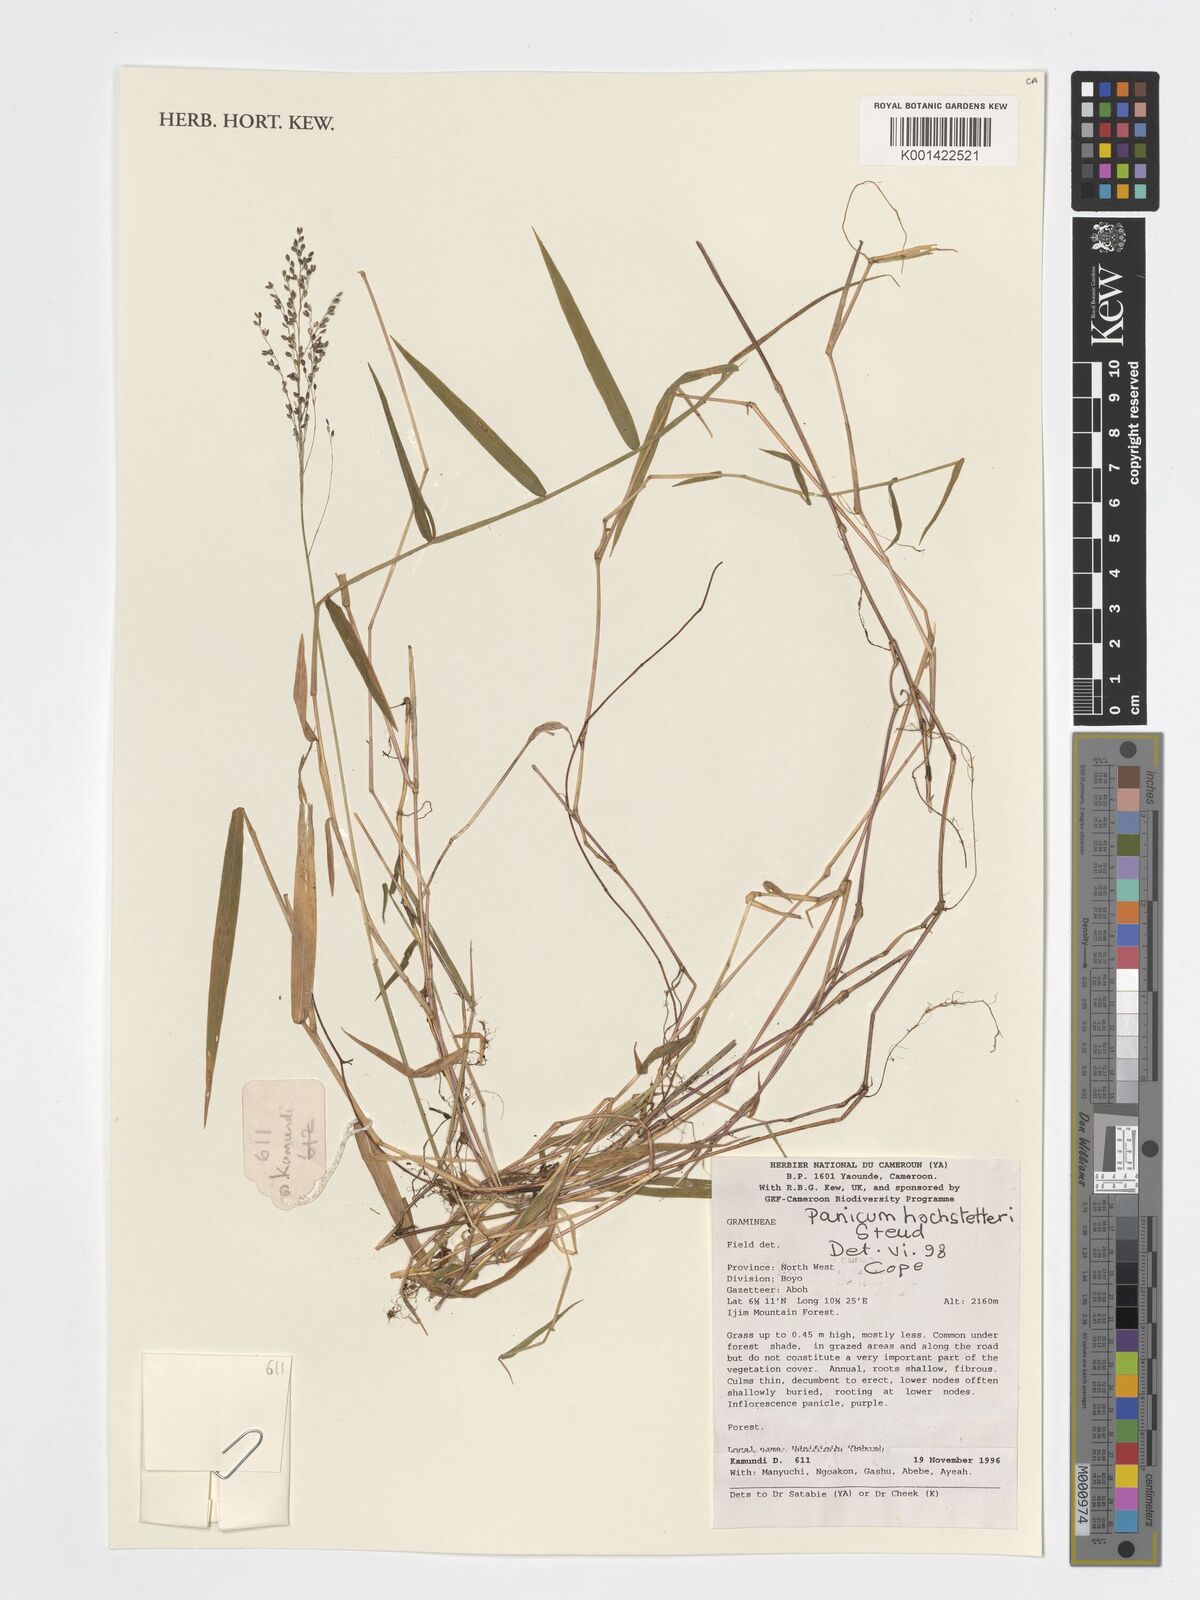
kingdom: Plantae
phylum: Tracheophyta
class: Liliopsida
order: Poales
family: Poaceae
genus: Panicum
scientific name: Panicum hochstetteri
